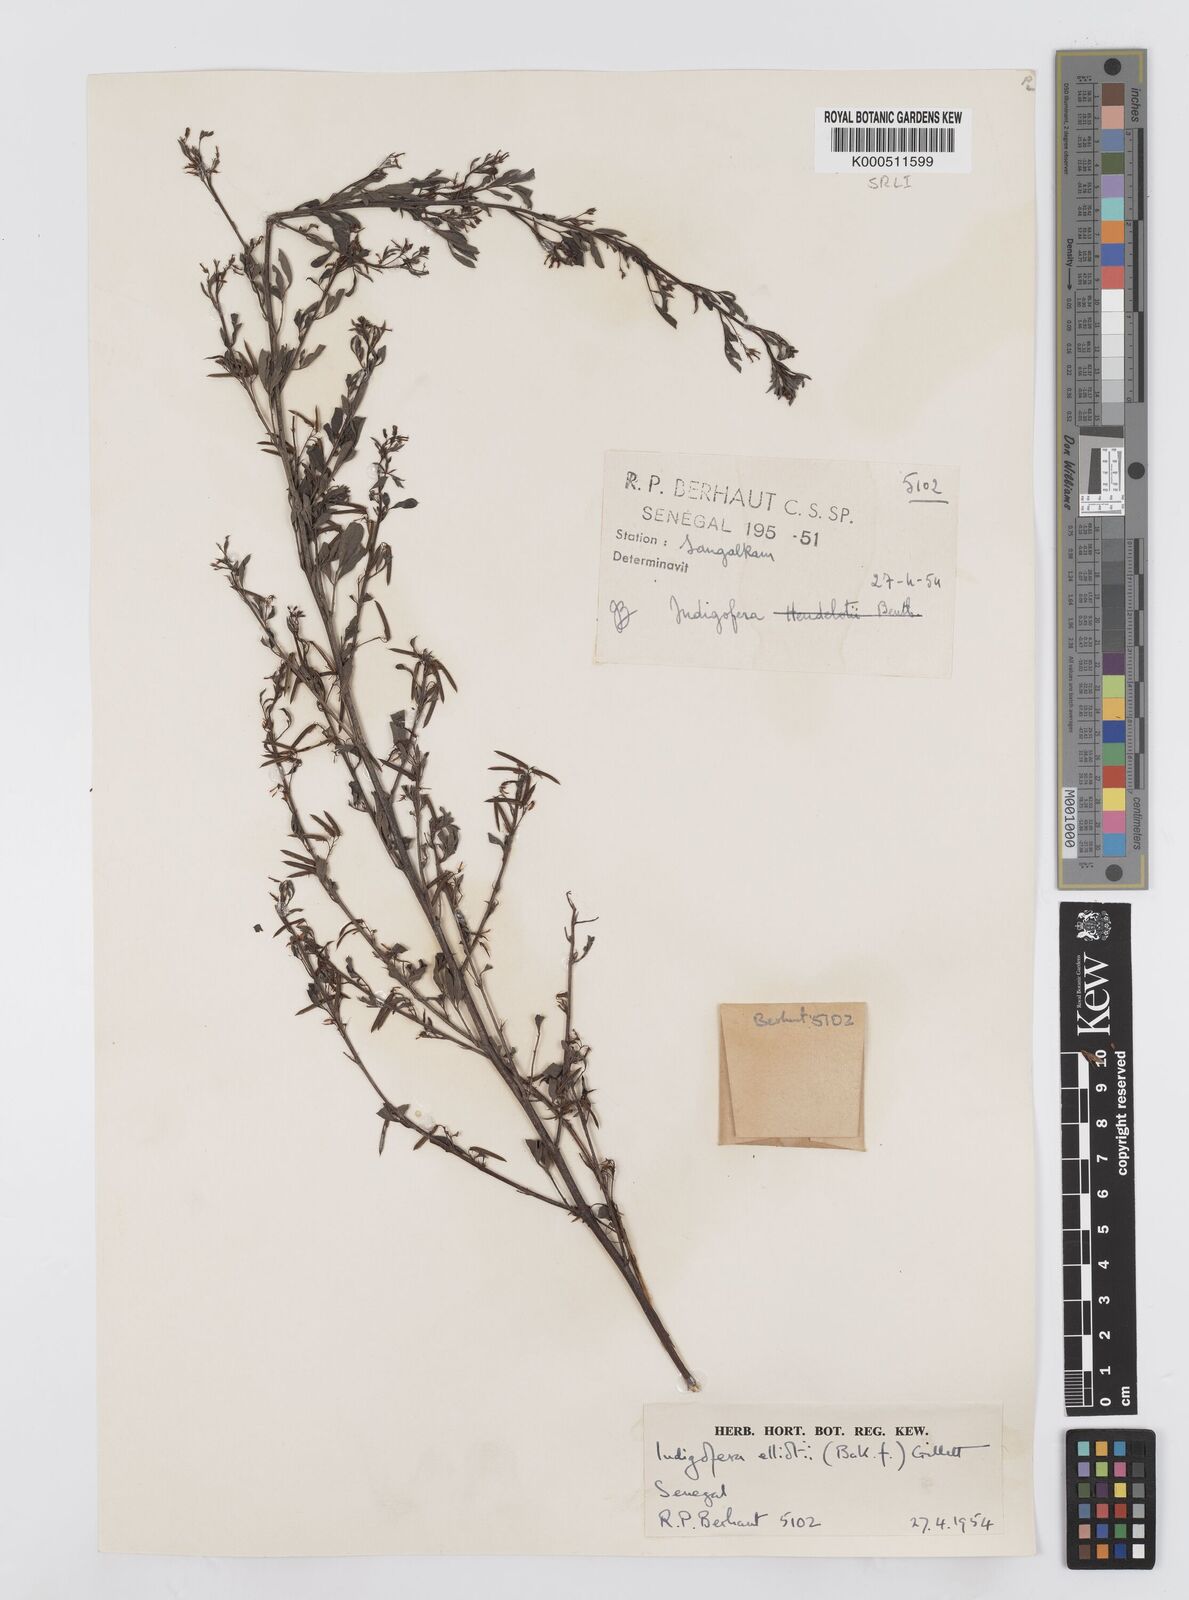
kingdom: Plantae
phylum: Tracheophyta
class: Magnoliopsida
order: Fabales
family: Fabaceae
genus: Indigofera
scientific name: Indigofera elliotii
